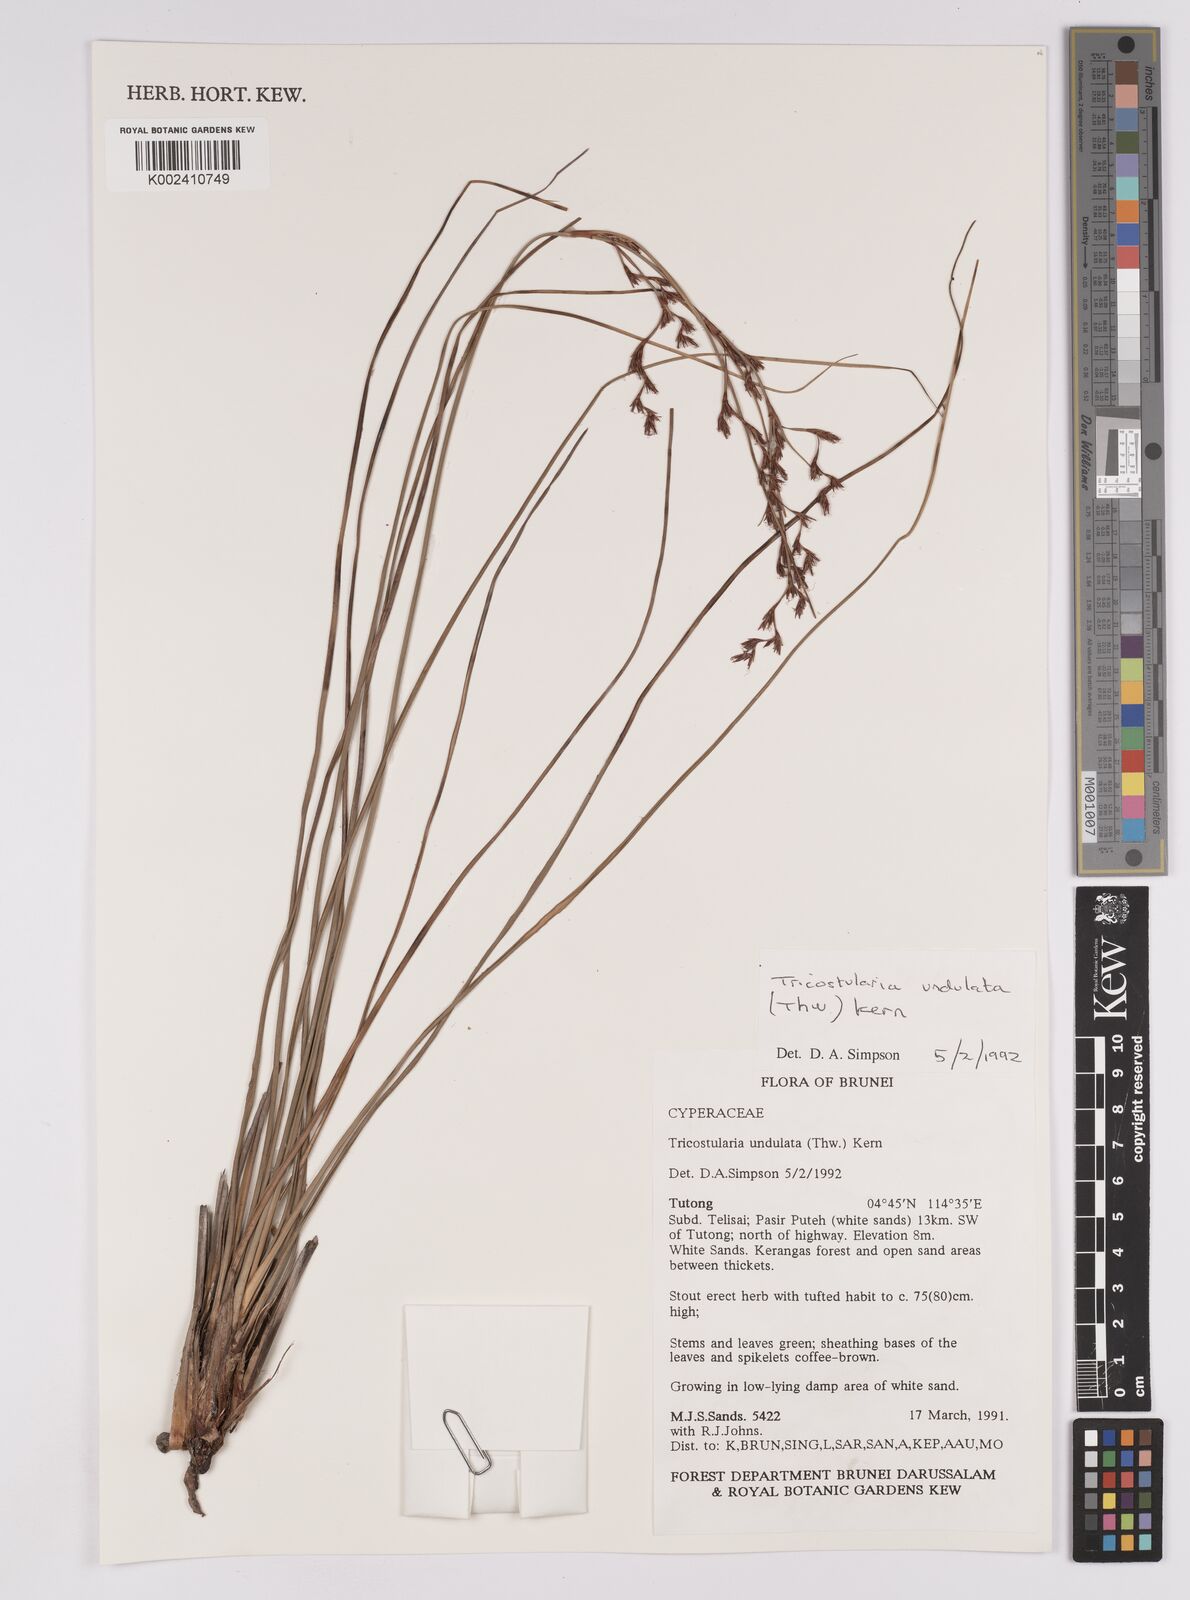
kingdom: Plantae
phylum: Tracheophyta
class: Liliopsida
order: Poales
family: Cyperaceae
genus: Anthelepis
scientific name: Anthelepis undulata
